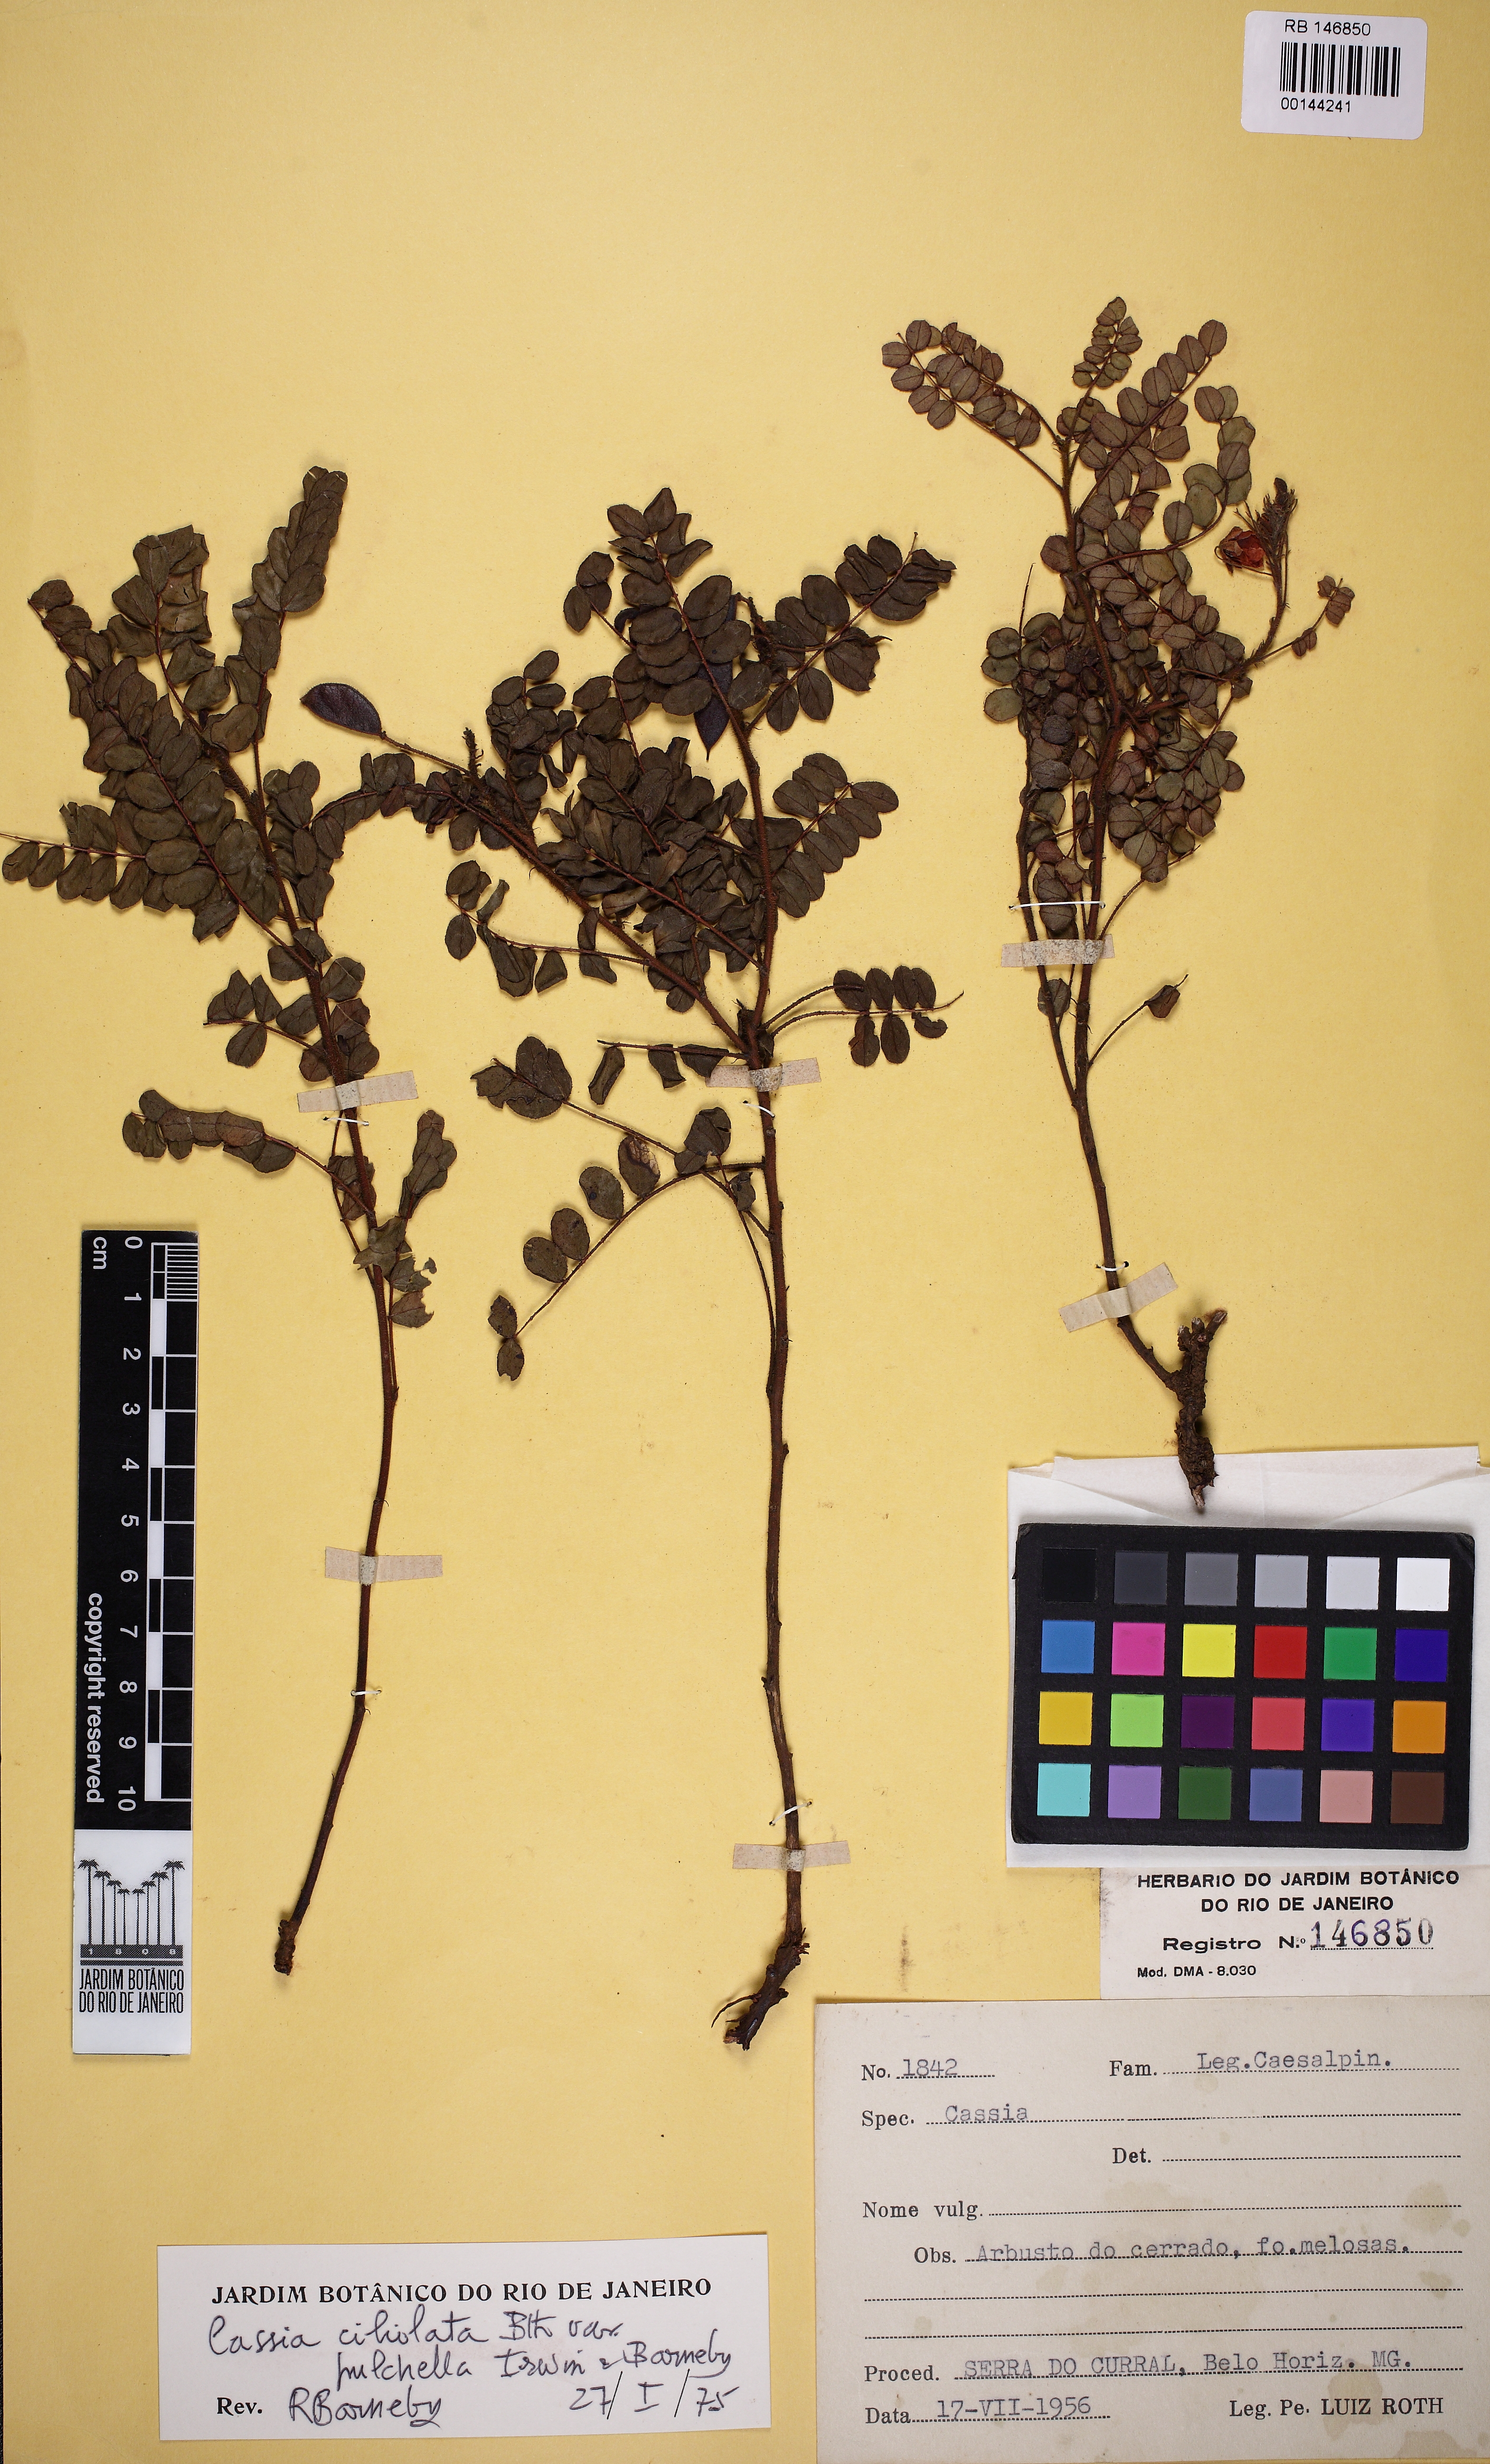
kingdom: Plantae
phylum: Tracheophyta
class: Magnoliopsida
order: Fabales
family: Fabaceae
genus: Chamaecrista
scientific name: Chamaecrista ciliolata
